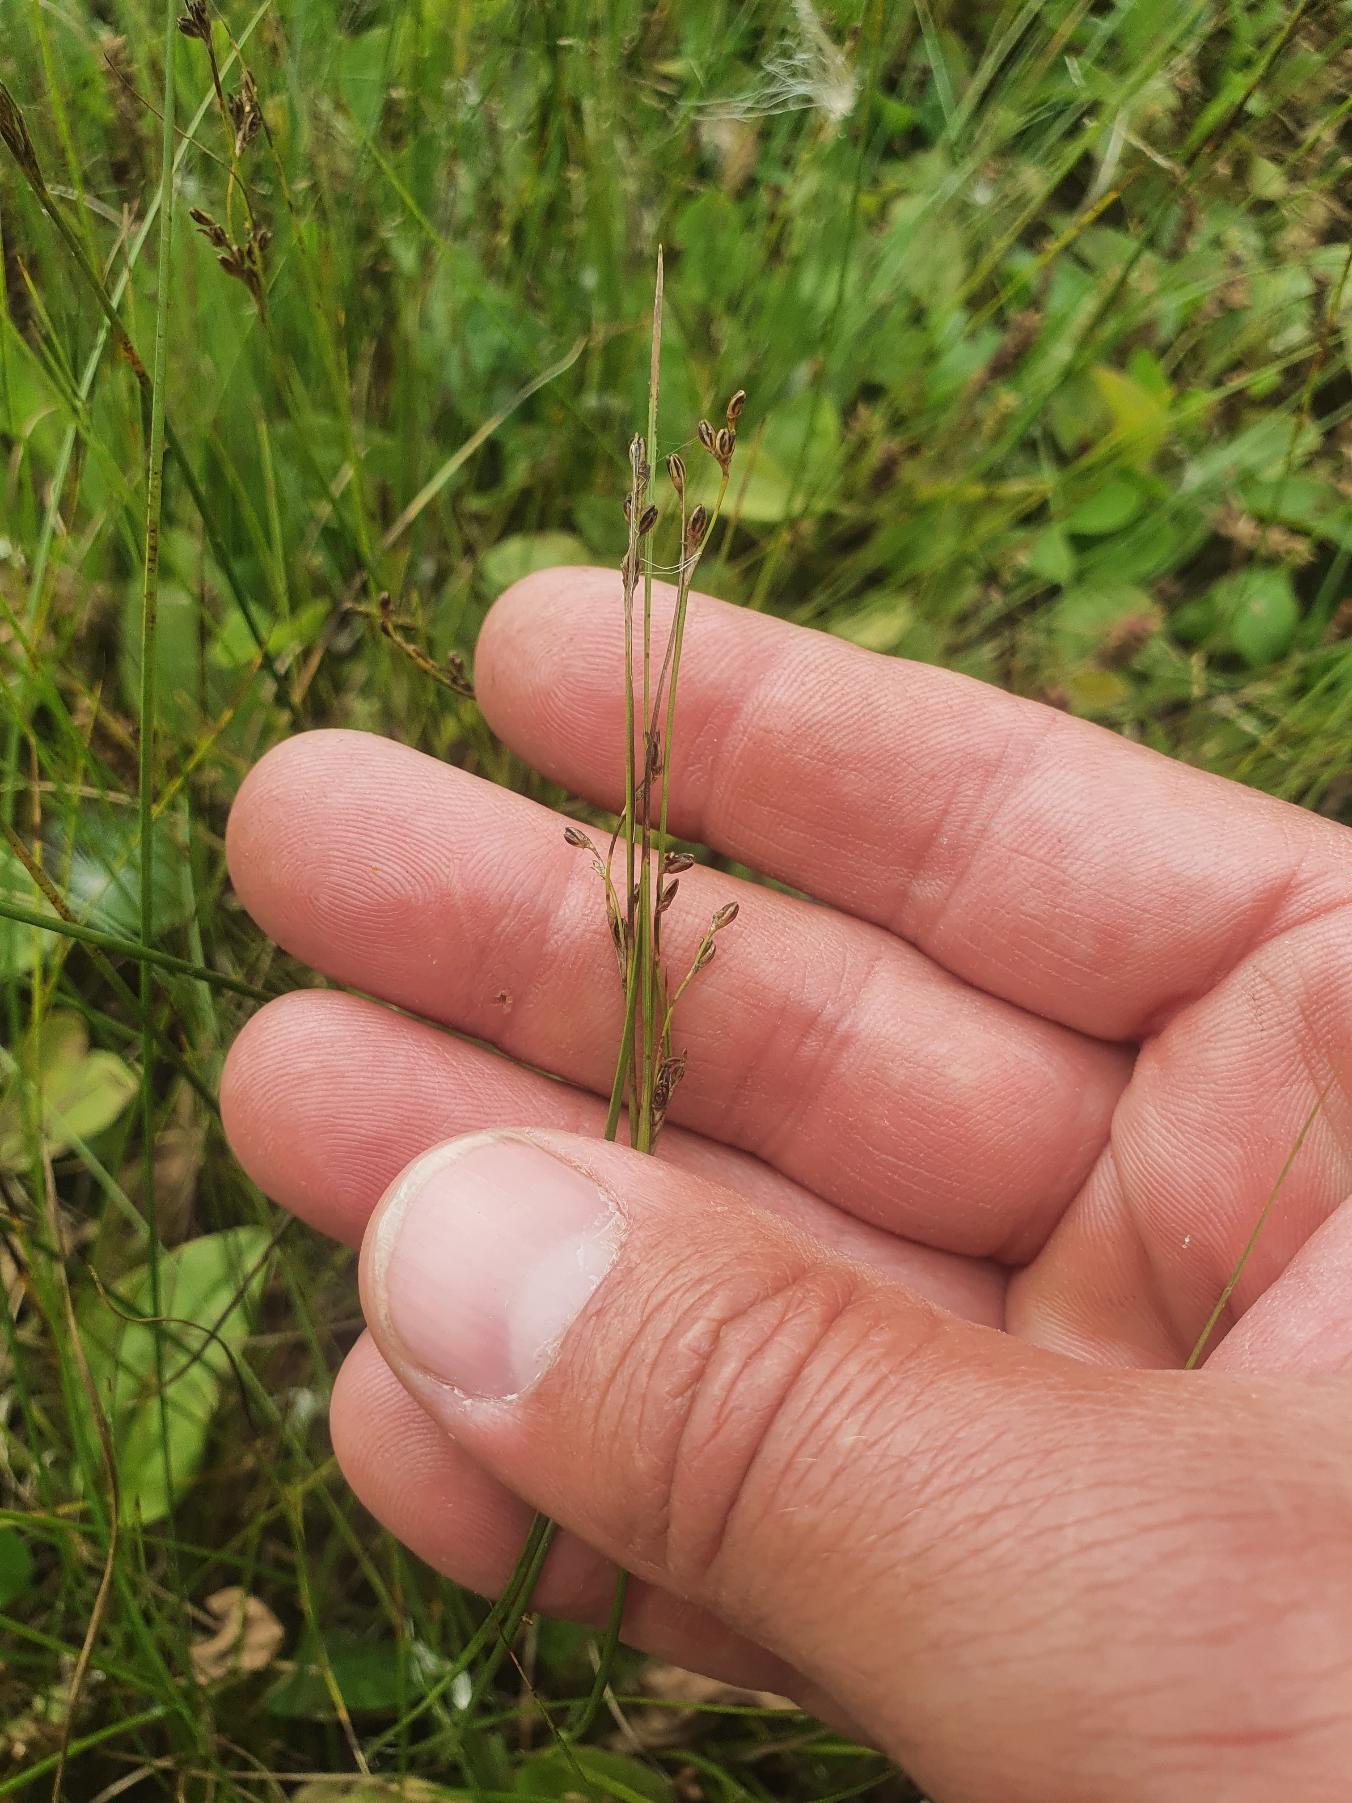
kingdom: Plantae
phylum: Tracheophyta
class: Liliopsida
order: Poales
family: Juncaceae
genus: Juncus
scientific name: Juncus gerardi
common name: Harril
